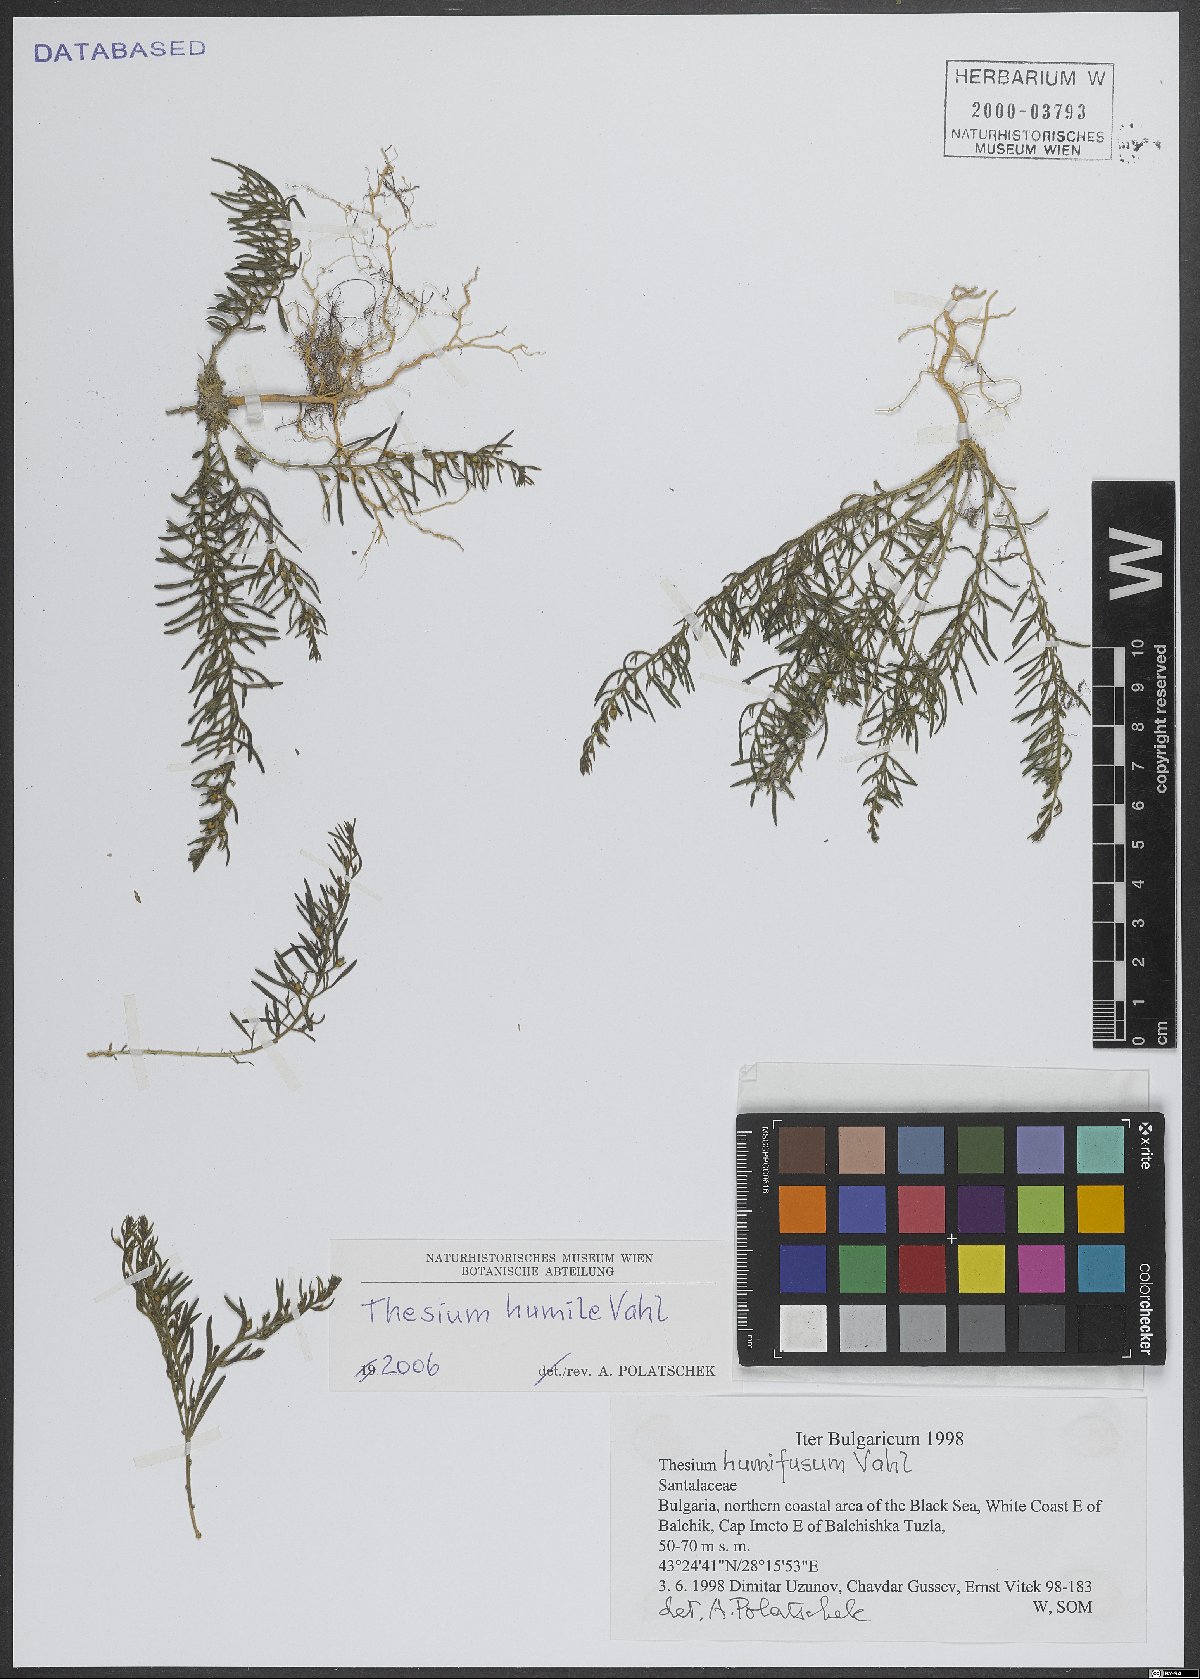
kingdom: Plantae
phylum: Tracheophyta
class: Magnoliopsida
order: Santalales
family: Thesiaceae
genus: Thesium
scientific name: Thesium humile
